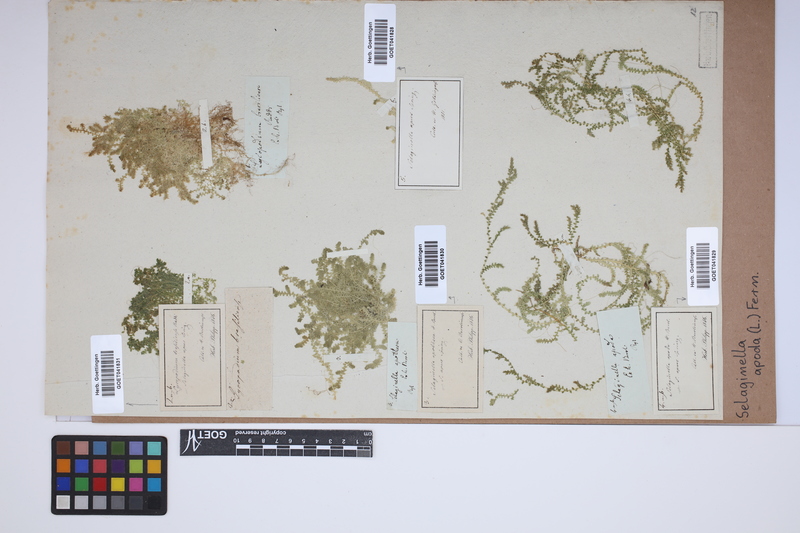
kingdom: Plantae
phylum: Tracheophyta
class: Lycopodiopsida
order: Selaginellales
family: Selaginellaceae
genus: Selaginella
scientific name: Selaginella apoda
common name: Creeping spikemoss
